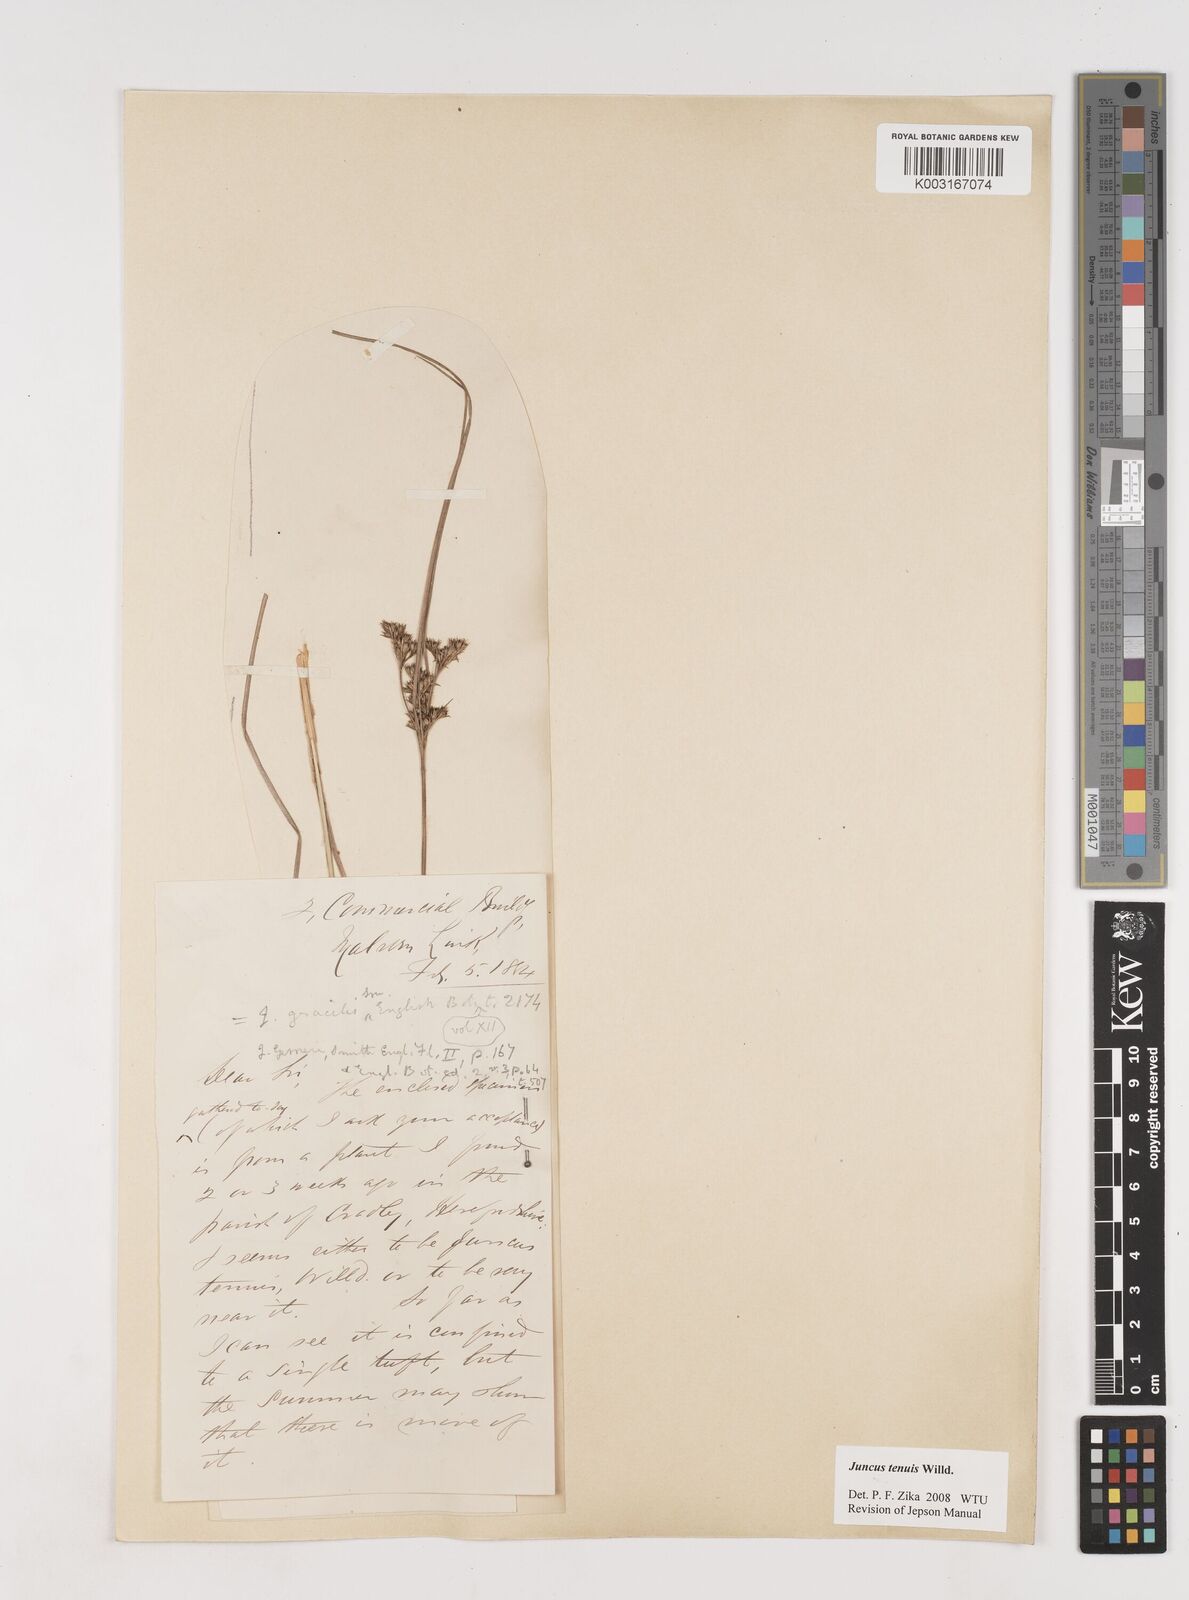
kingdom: Plantae
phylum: Tracheophyta
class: Liliopsida
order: Poales
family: Juncaceae
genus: Juncus
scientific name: Juncus tenuis
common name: Slender rush
